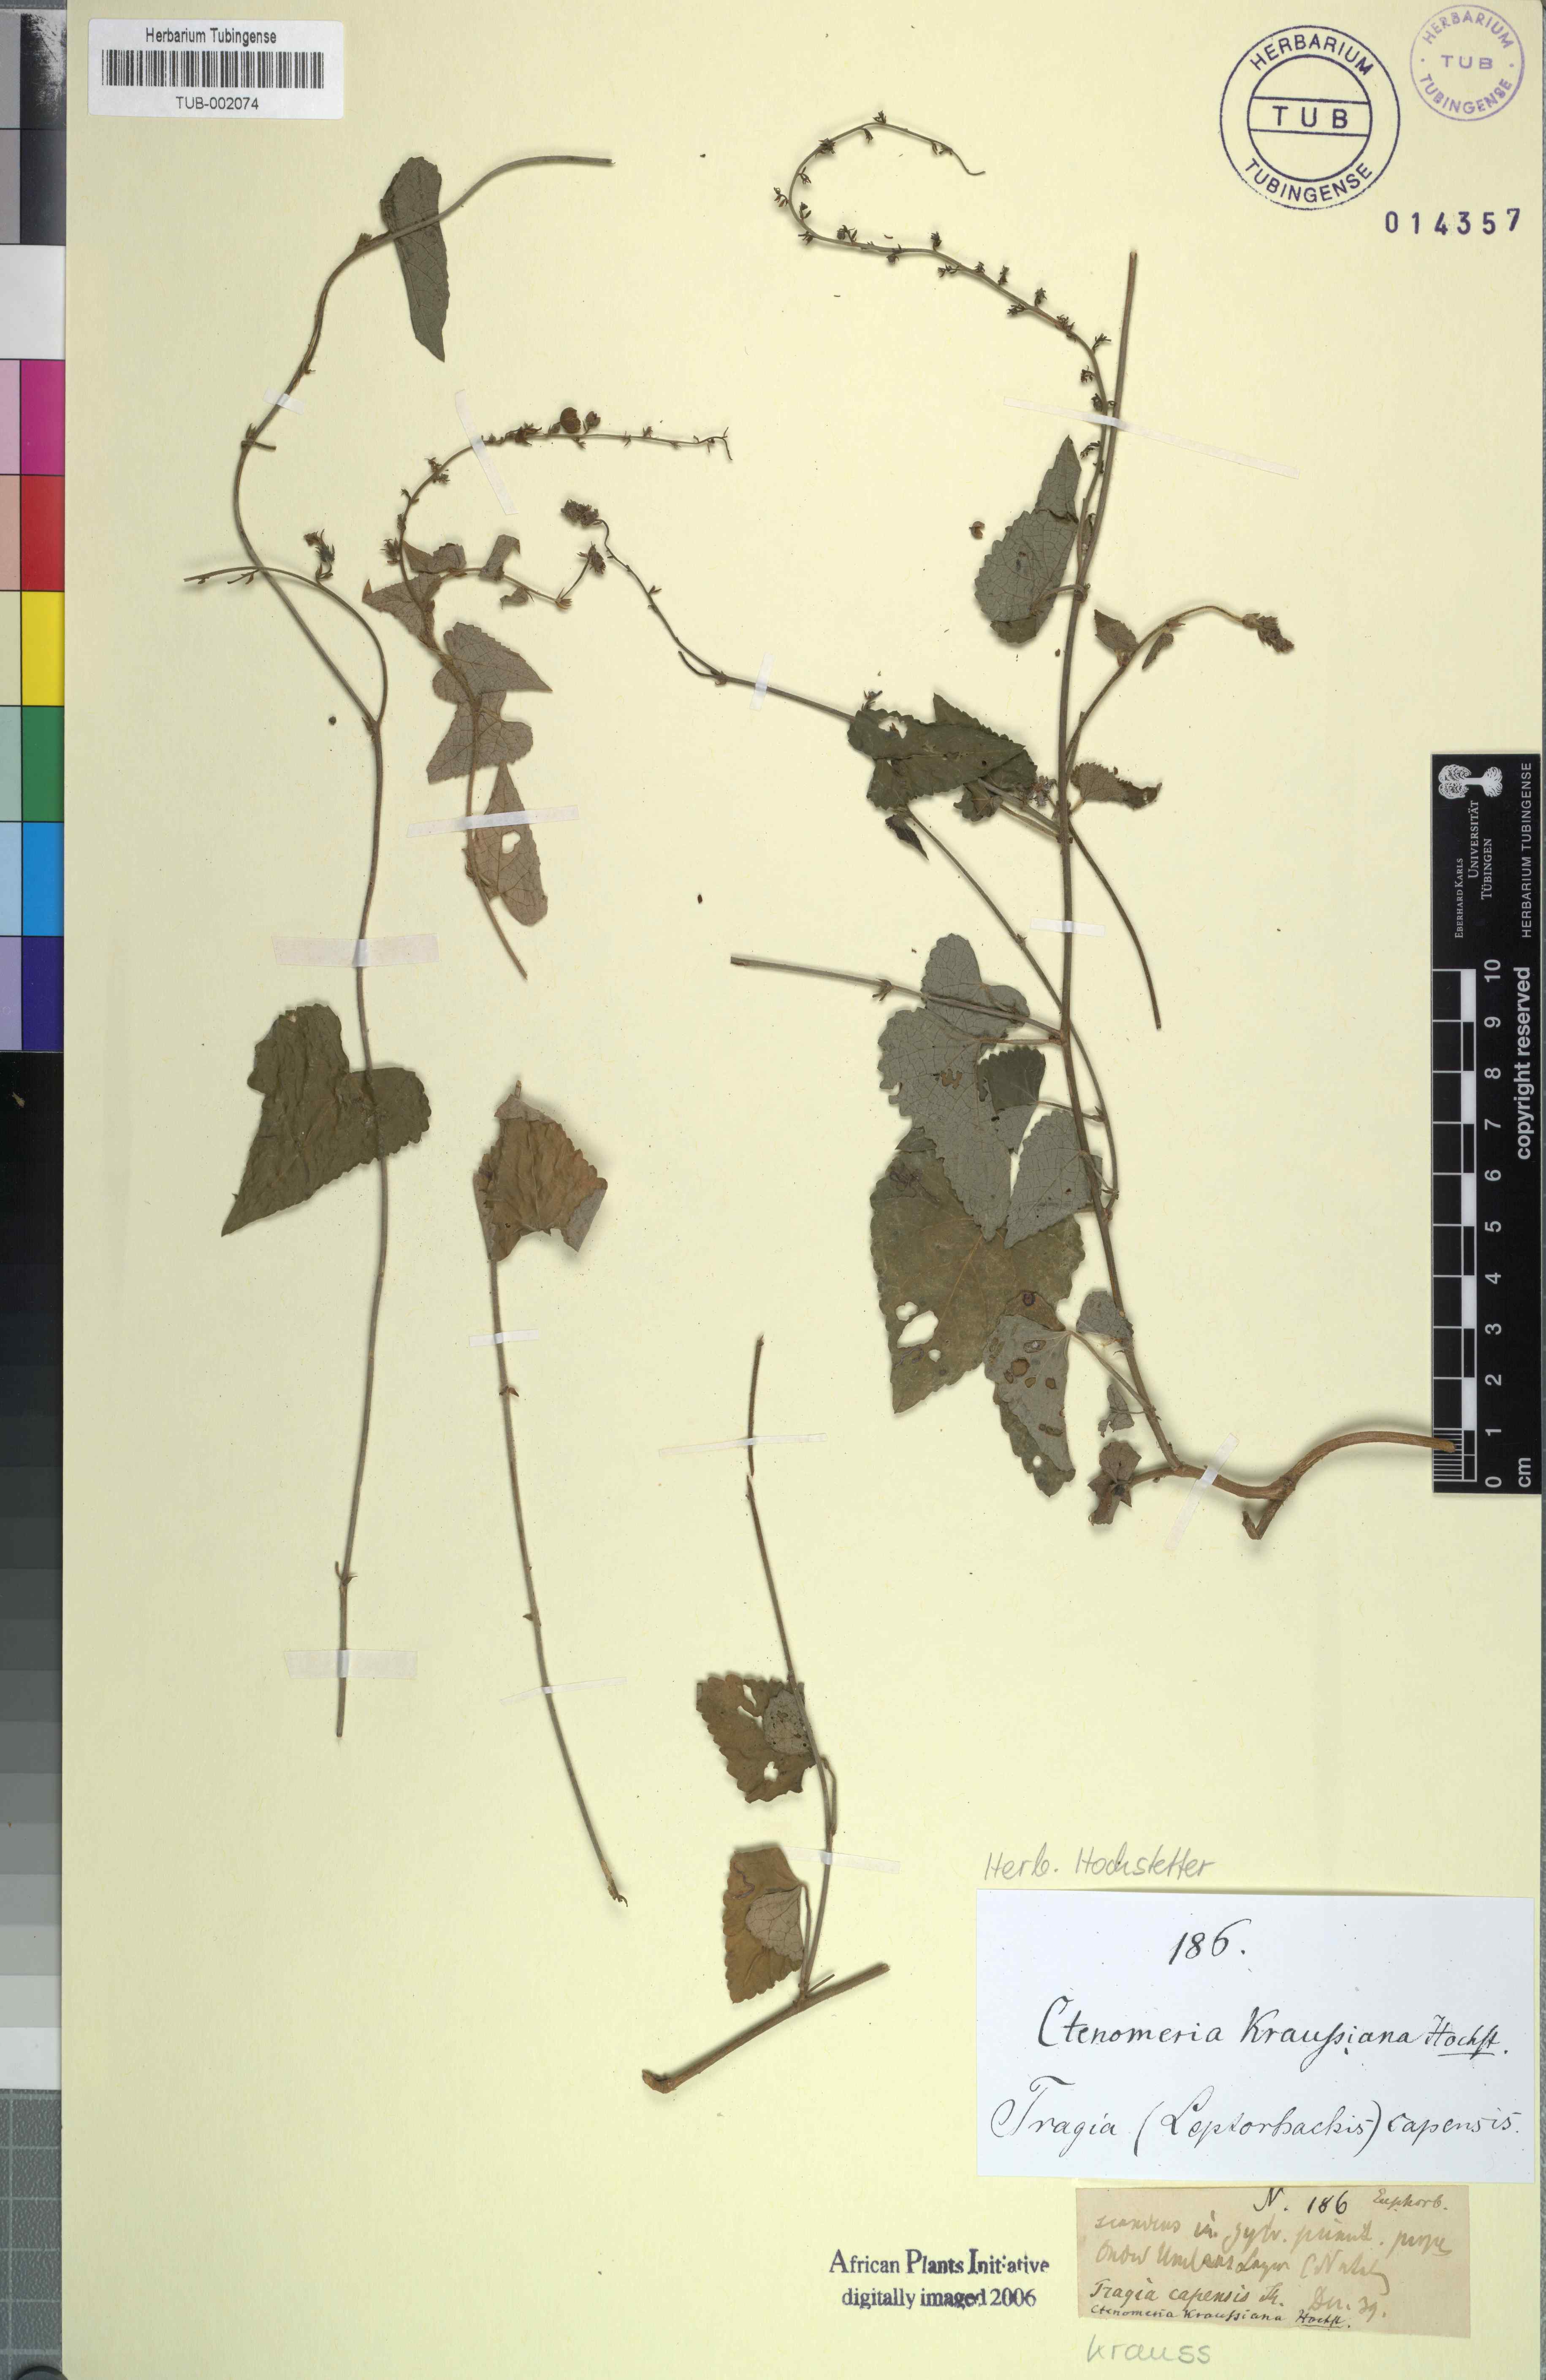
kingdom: Plantae
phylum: Tracheophyta
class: Magnoliopsida
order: Malpighiales
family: Euphorbiaceae
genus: Tragia
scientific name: Tragia capensis
